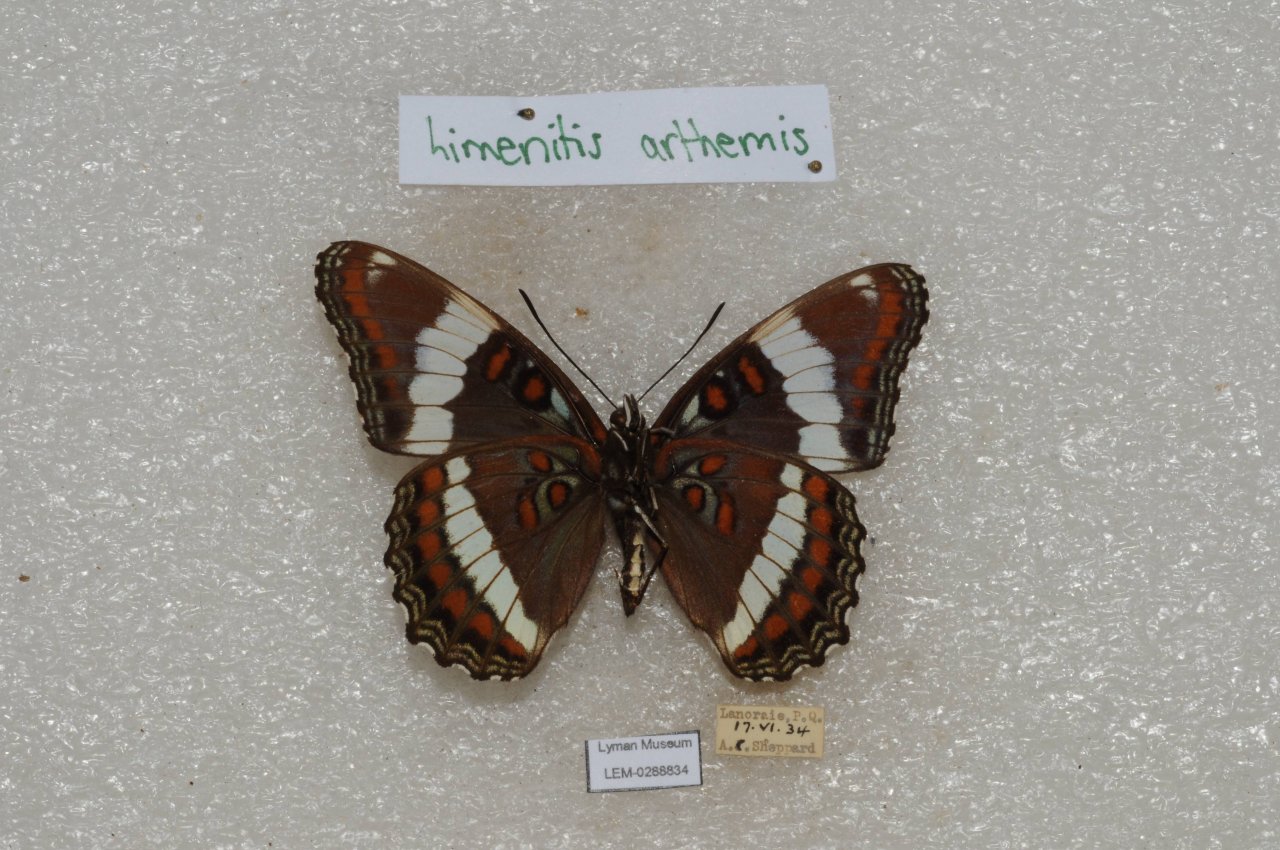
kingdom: Animalia
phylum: Arthropoda
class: Insecta
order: Lepidoptera
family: Nymphalidae
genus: Limenitis
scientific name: Limenitis arthemis
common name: Red-spotted Admiral
